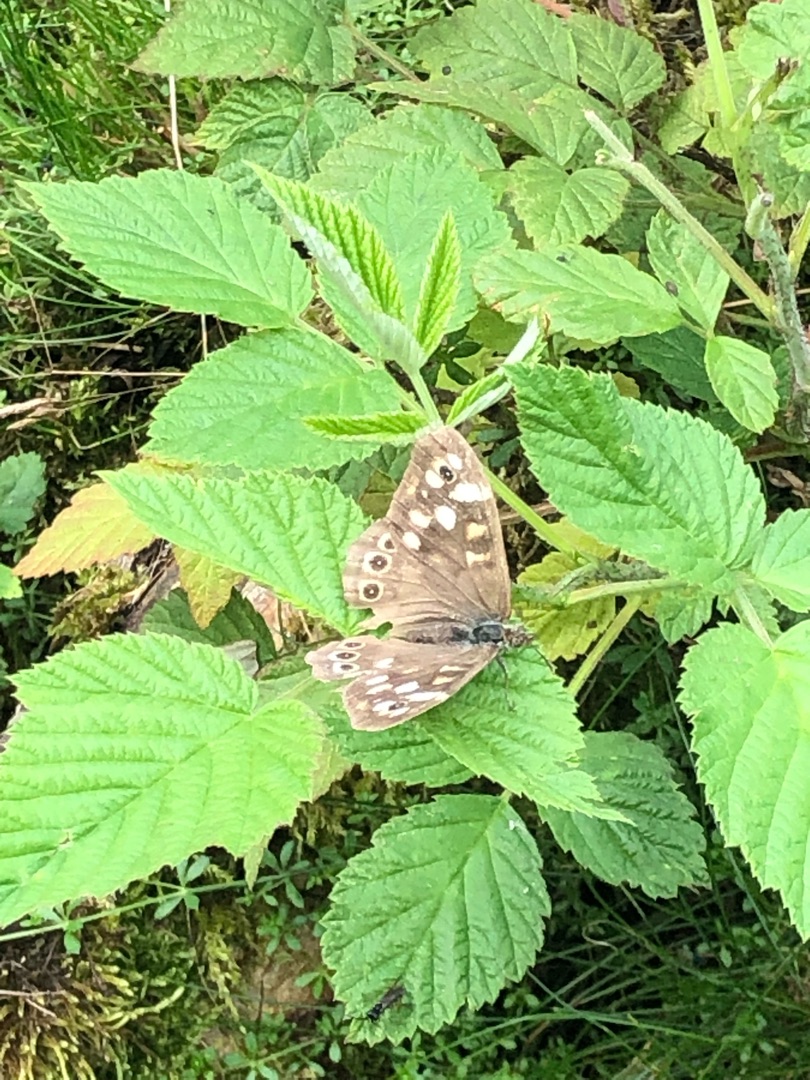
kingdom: Animalia
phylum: Arthropoda
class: Insecta
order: Lepidoptera
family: Nymphalidae
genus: Pararge
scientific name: Pararge aegeria
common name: Skovrandøje
